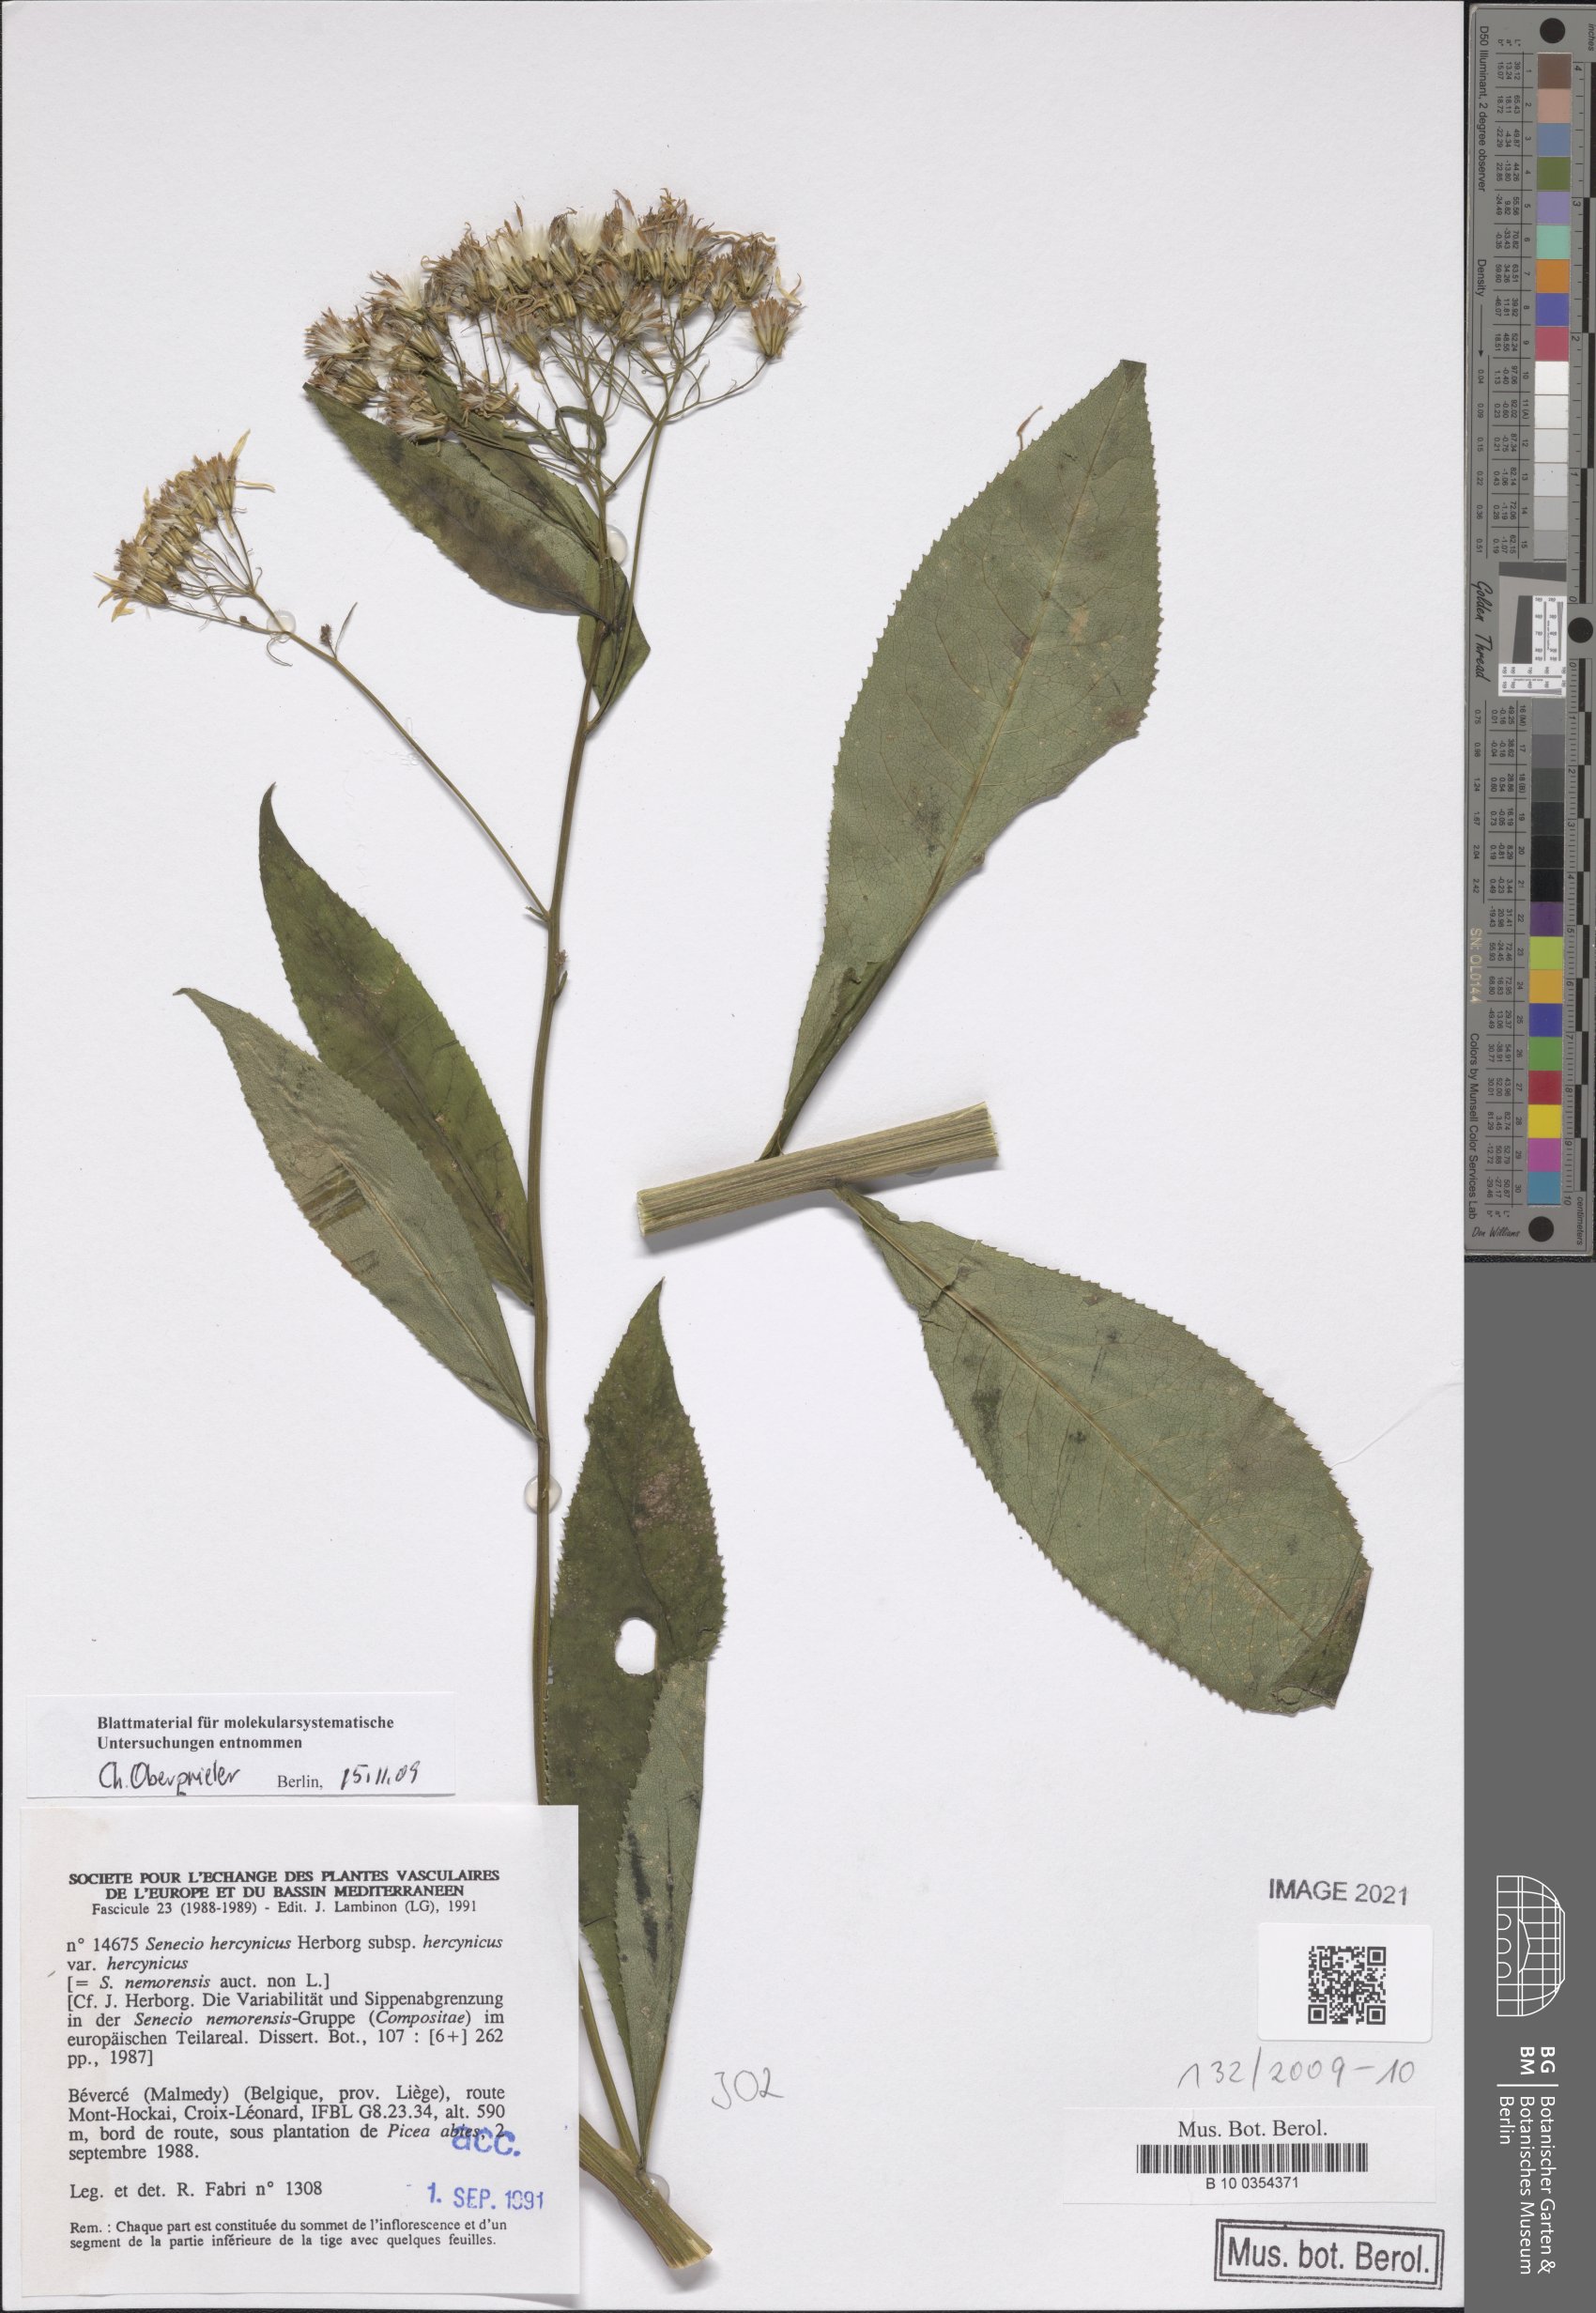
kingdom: Plantae
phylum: Tracheophyta
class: Magnoliopsida
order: Asterales
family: Asteraceae
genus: Senecio
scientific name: Senecio hercynicus
